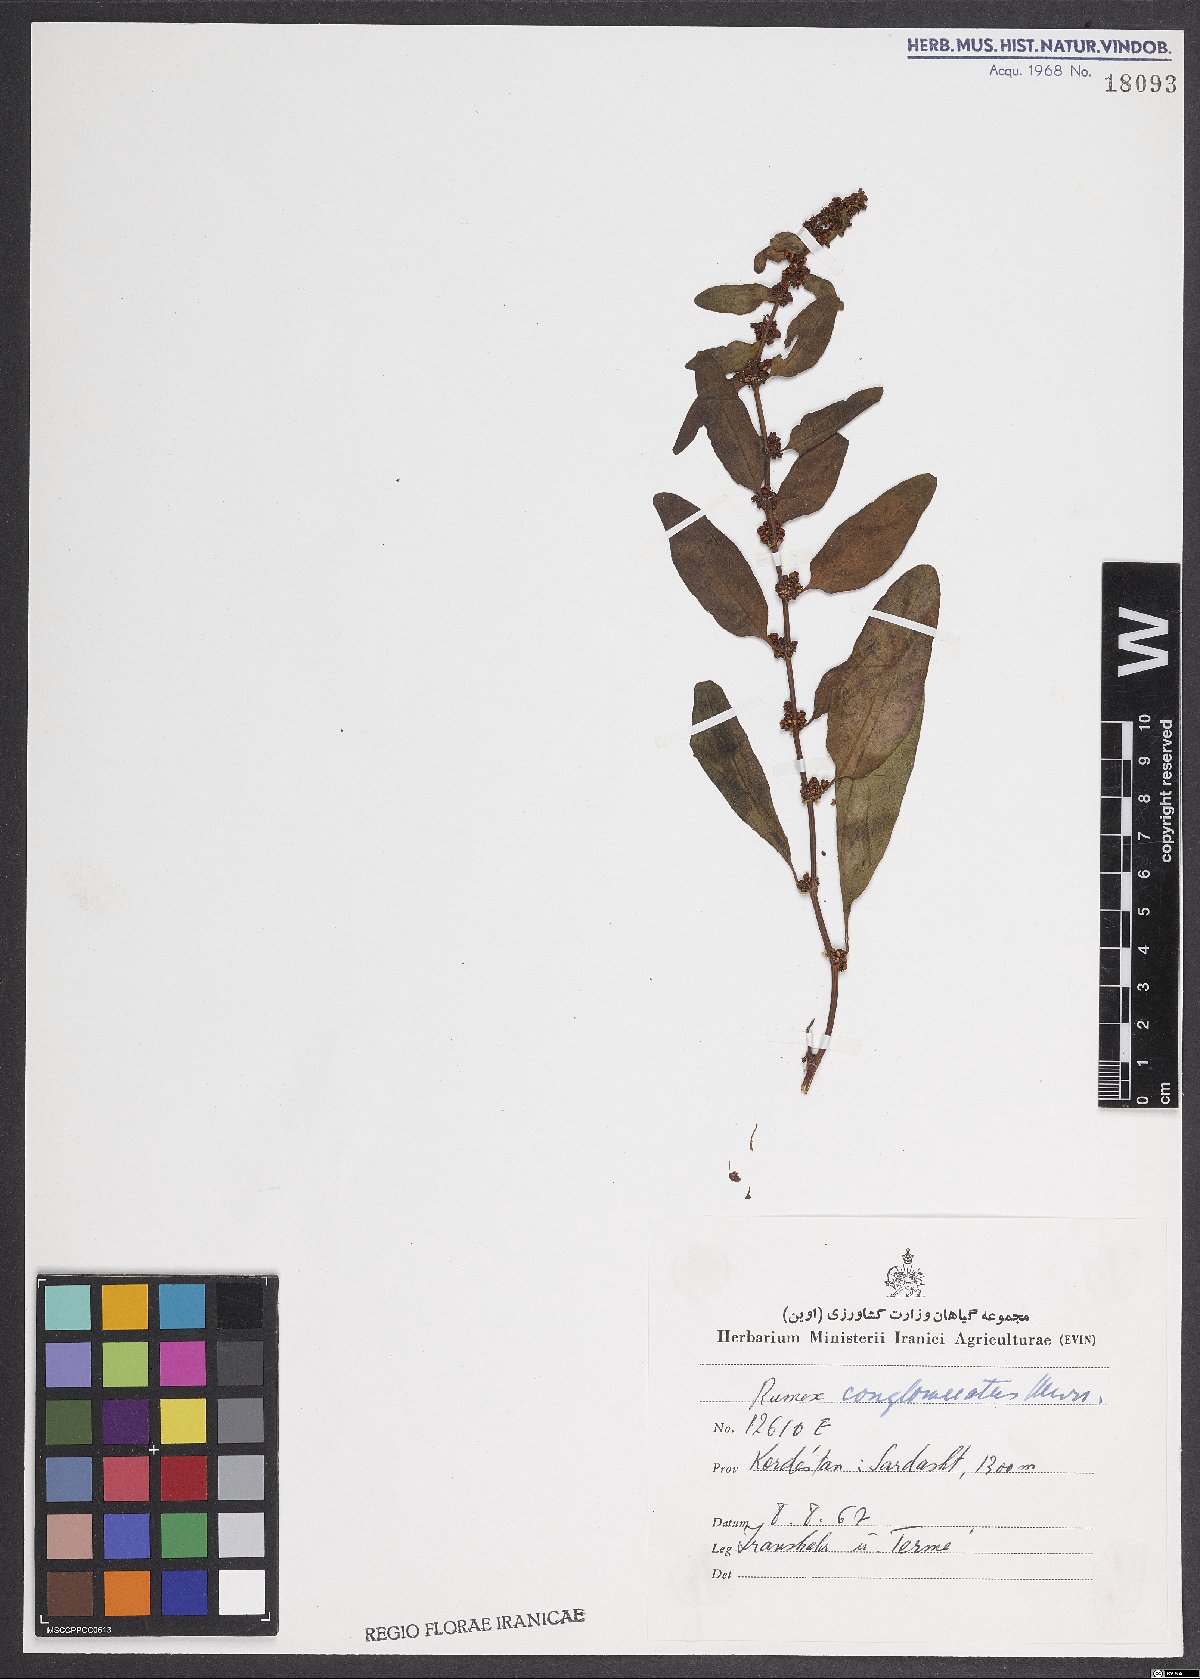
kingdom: Plantae
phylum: Tracheophyta
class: Magnoliopsida
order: Caryophyllales
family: Polygonaceae
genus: Rumex
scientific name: Rumex conglomeratus
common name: Clustered dock
